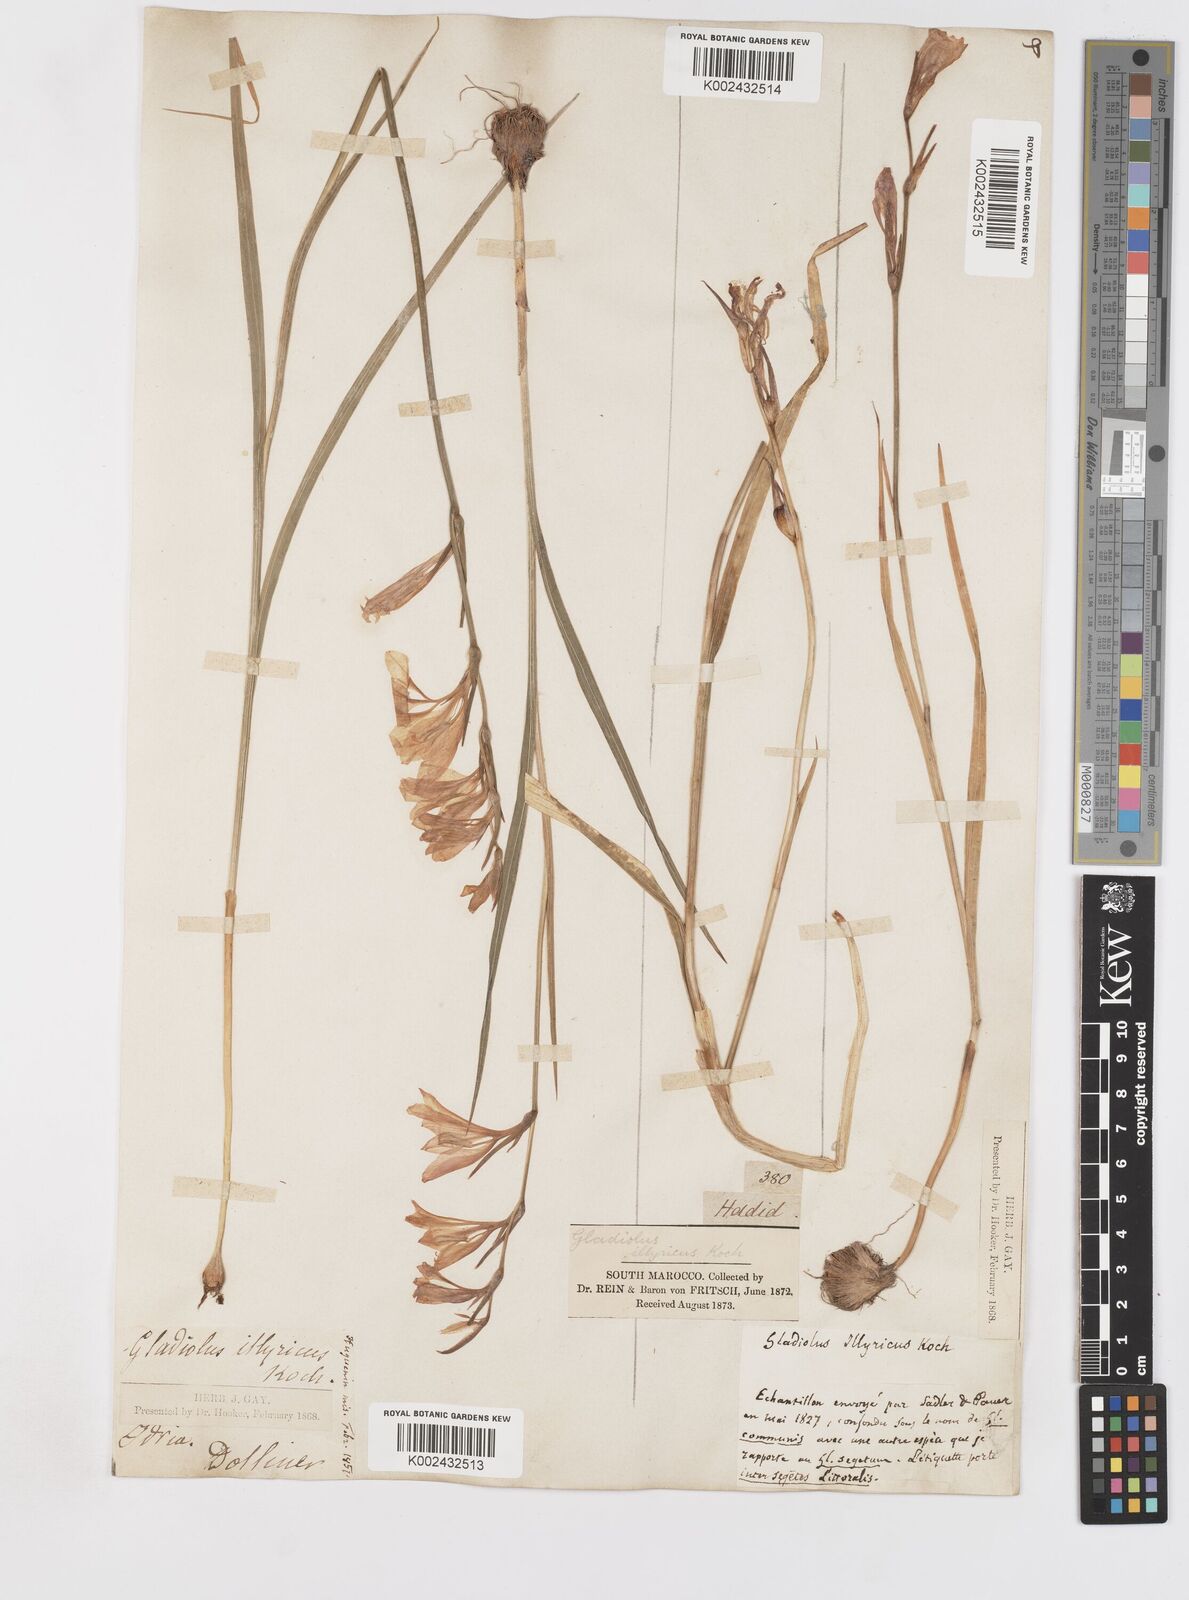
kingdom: Plantae
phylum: Tracheophyta
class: Liliopsida
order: Asparagales
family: Iridaceae
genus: Gladiolus
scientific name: Gladiolus illyricus
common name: Wild gladiolus
